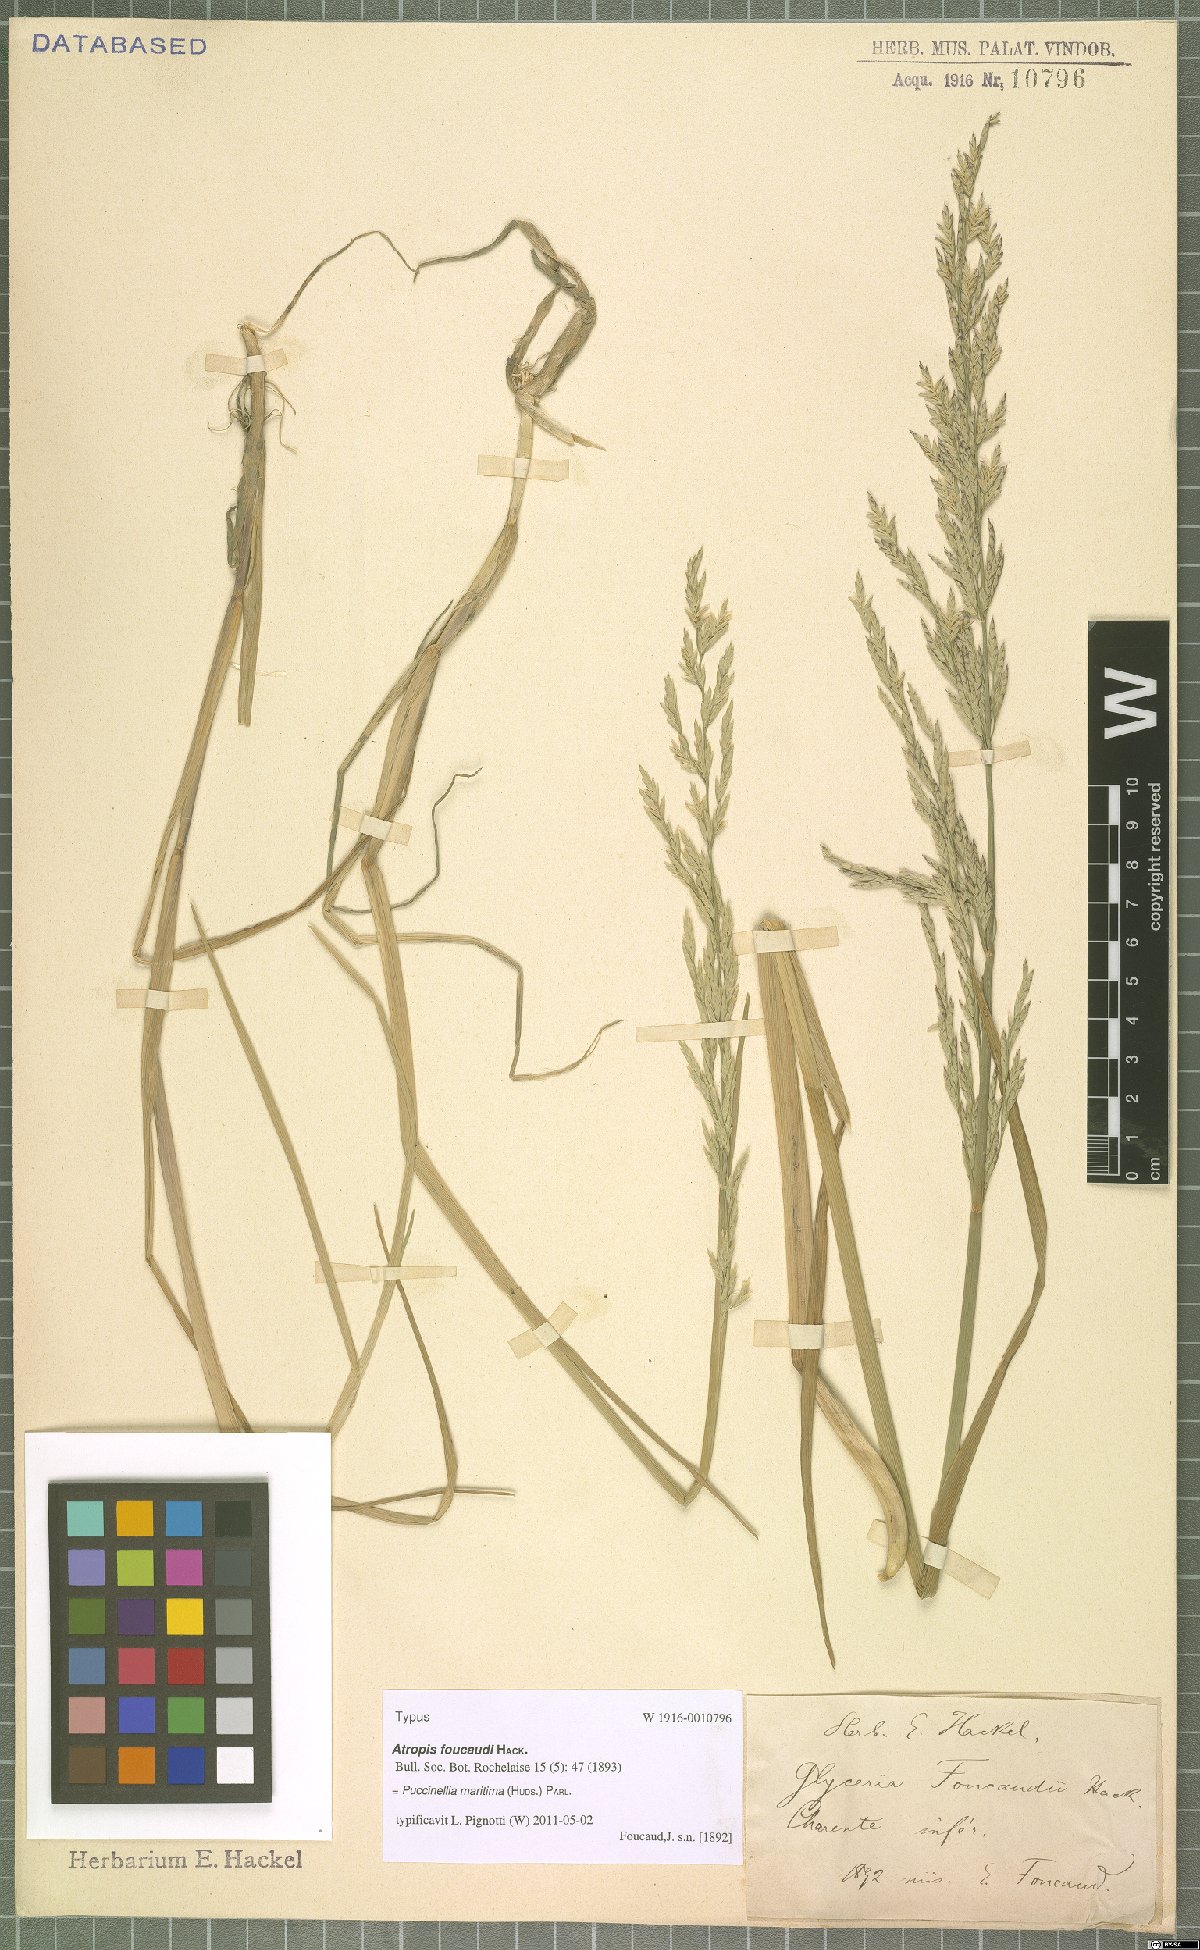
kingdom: Plantae
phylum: Tracheophyta
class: Liliopsida
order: Poales
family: Poaceae
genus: Puccinellia
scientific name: Puccinellia maritima
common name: Common saltmarsh grass
